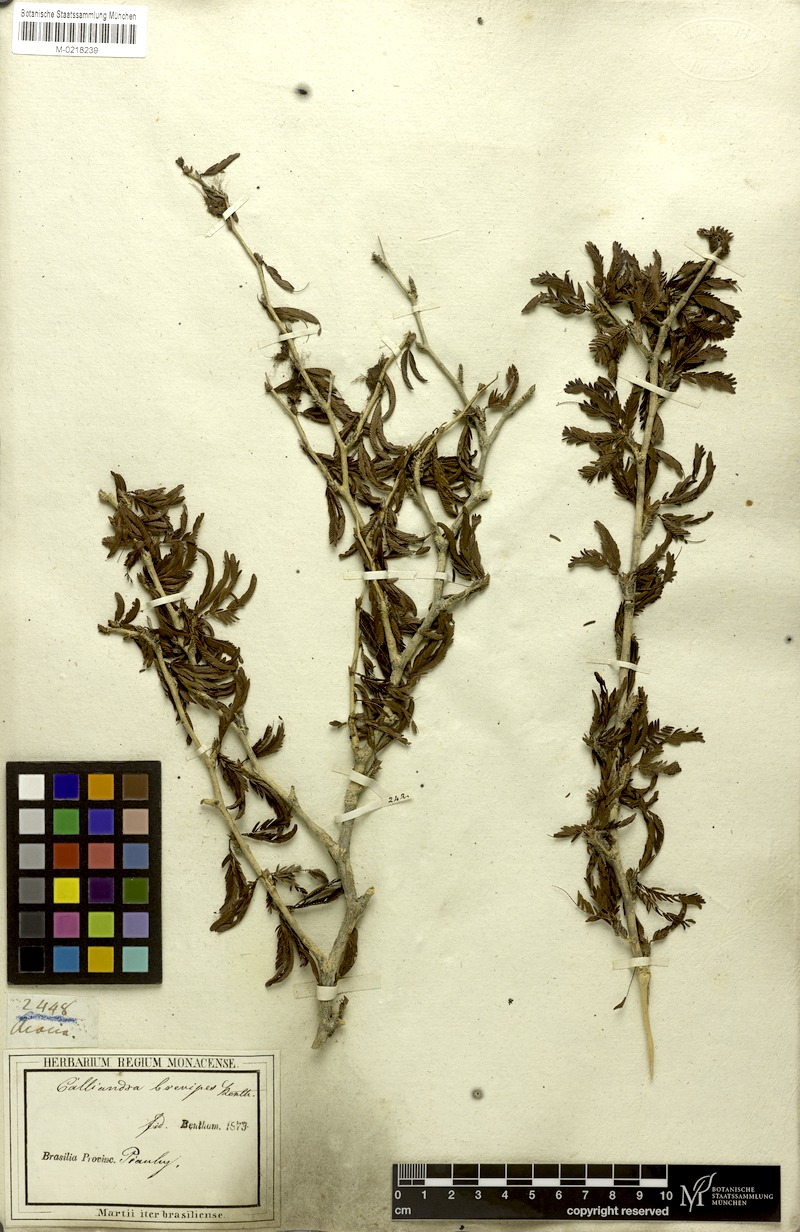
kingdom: Plantae
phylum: Tracheophyta
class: Magnoliopsida
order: Fabales
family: Fabaceae
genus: Calliandra
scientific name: Calliandra selloi
